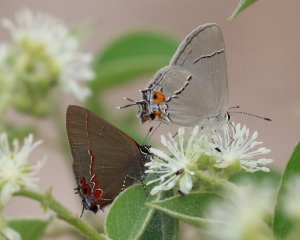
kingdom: Animalia
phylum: Arthropoda
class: Insecta
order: Lepidoptera
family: Lycaenidae
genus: Calycopis
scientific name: Calycopis isobeon
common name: Dusky-blue Groundstreak
